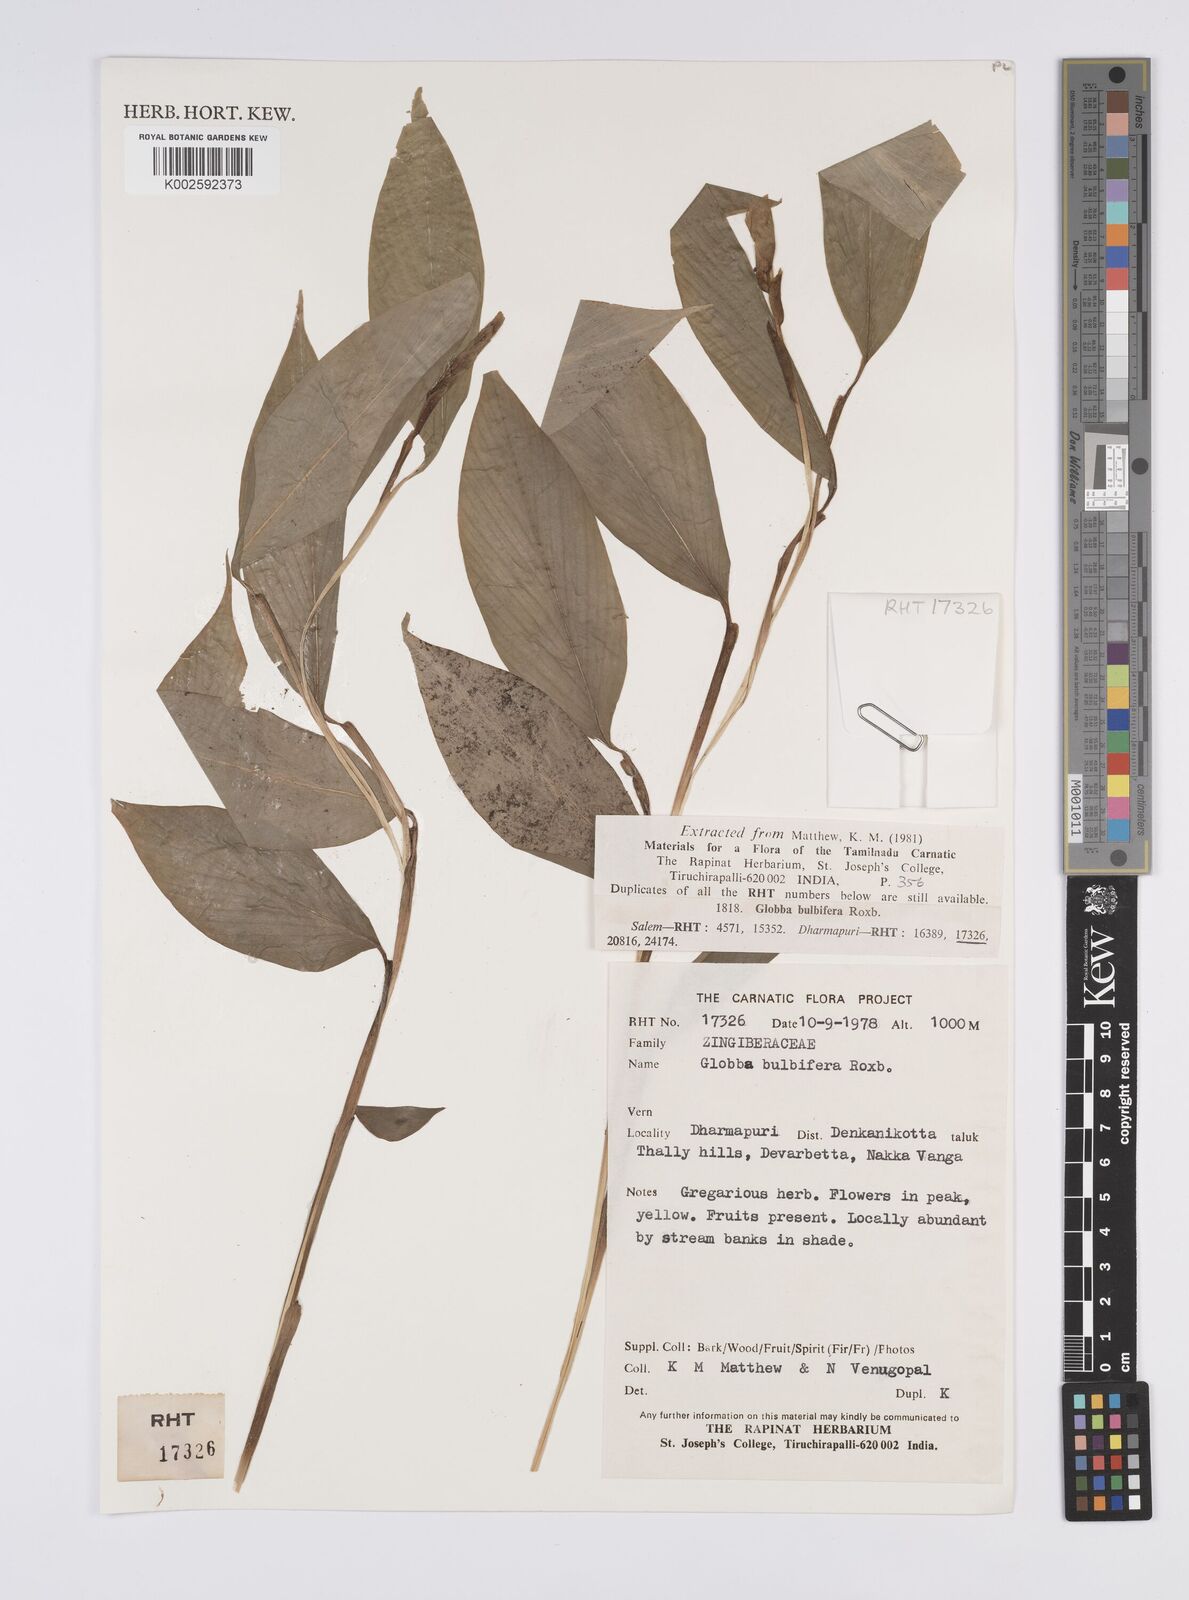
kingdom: Plantae
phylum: Tracheophyta
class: Liliopsida
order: Zingiberales
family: Zingiberaceae
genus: Globba
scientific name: Globba marantina
